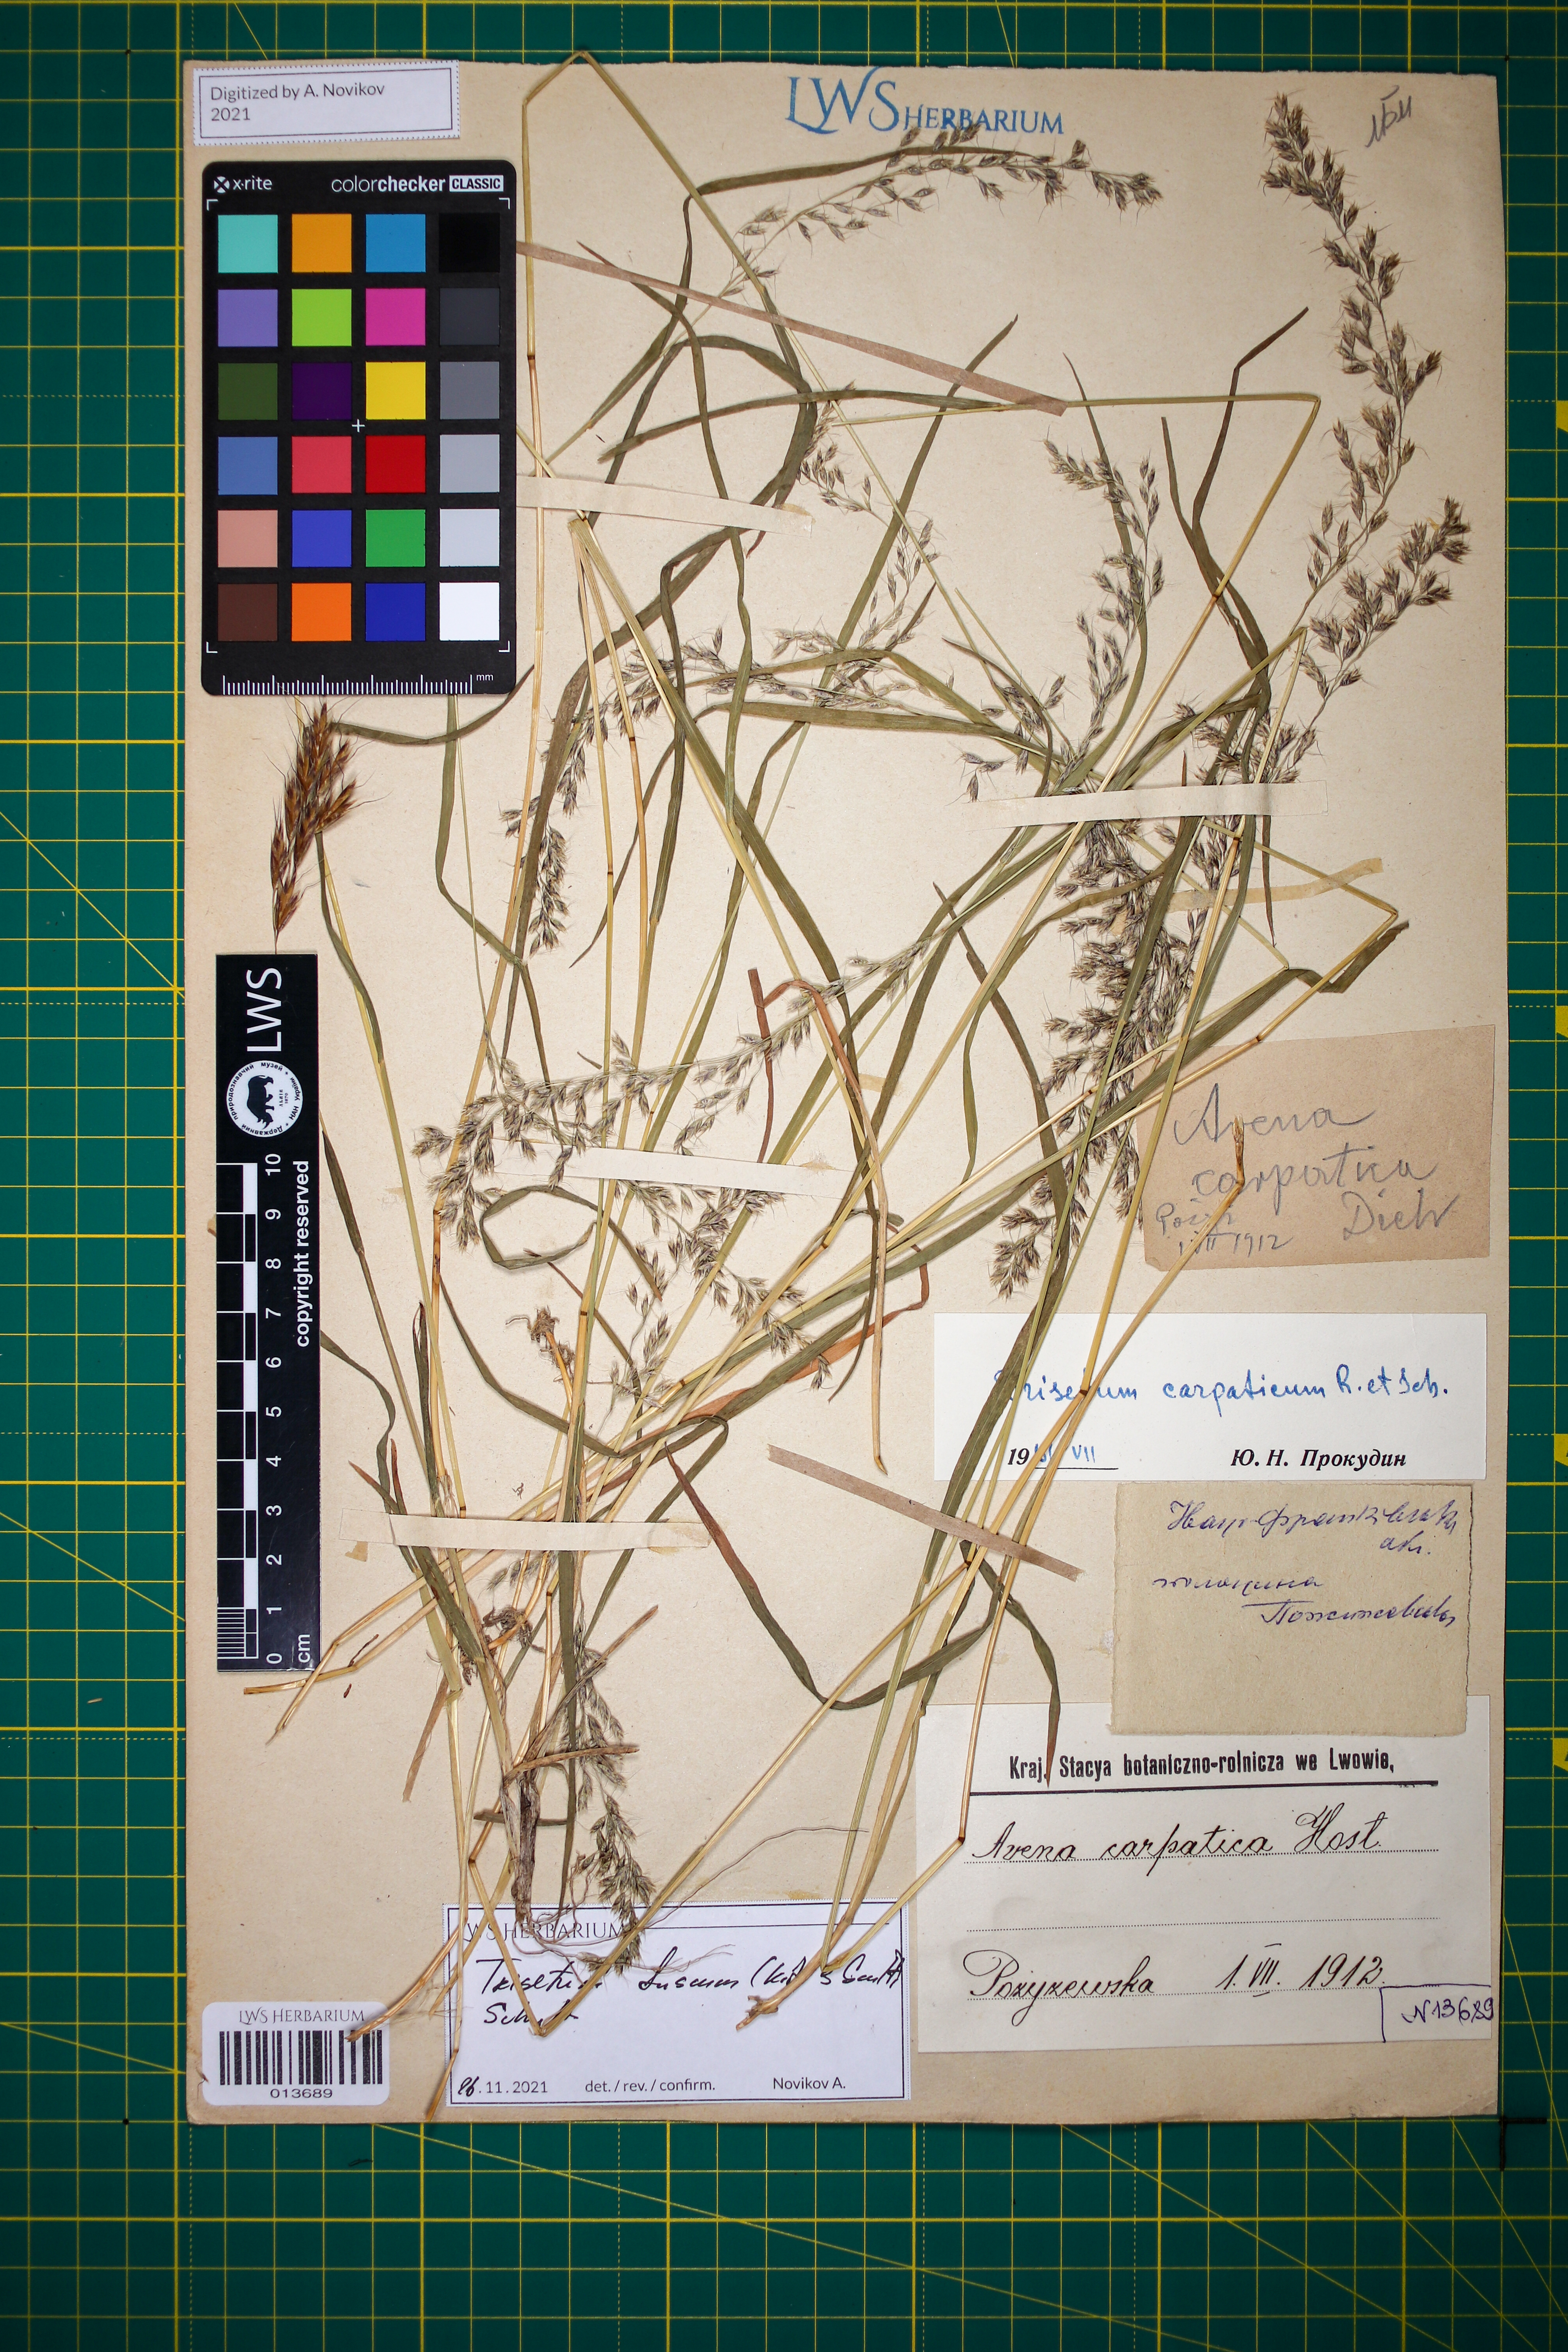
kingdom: Plantae
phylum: Tracheophyta
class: Liliopsida
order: Poales
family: Poaceae
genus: Trisetum
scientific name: Trisetum fuscum
